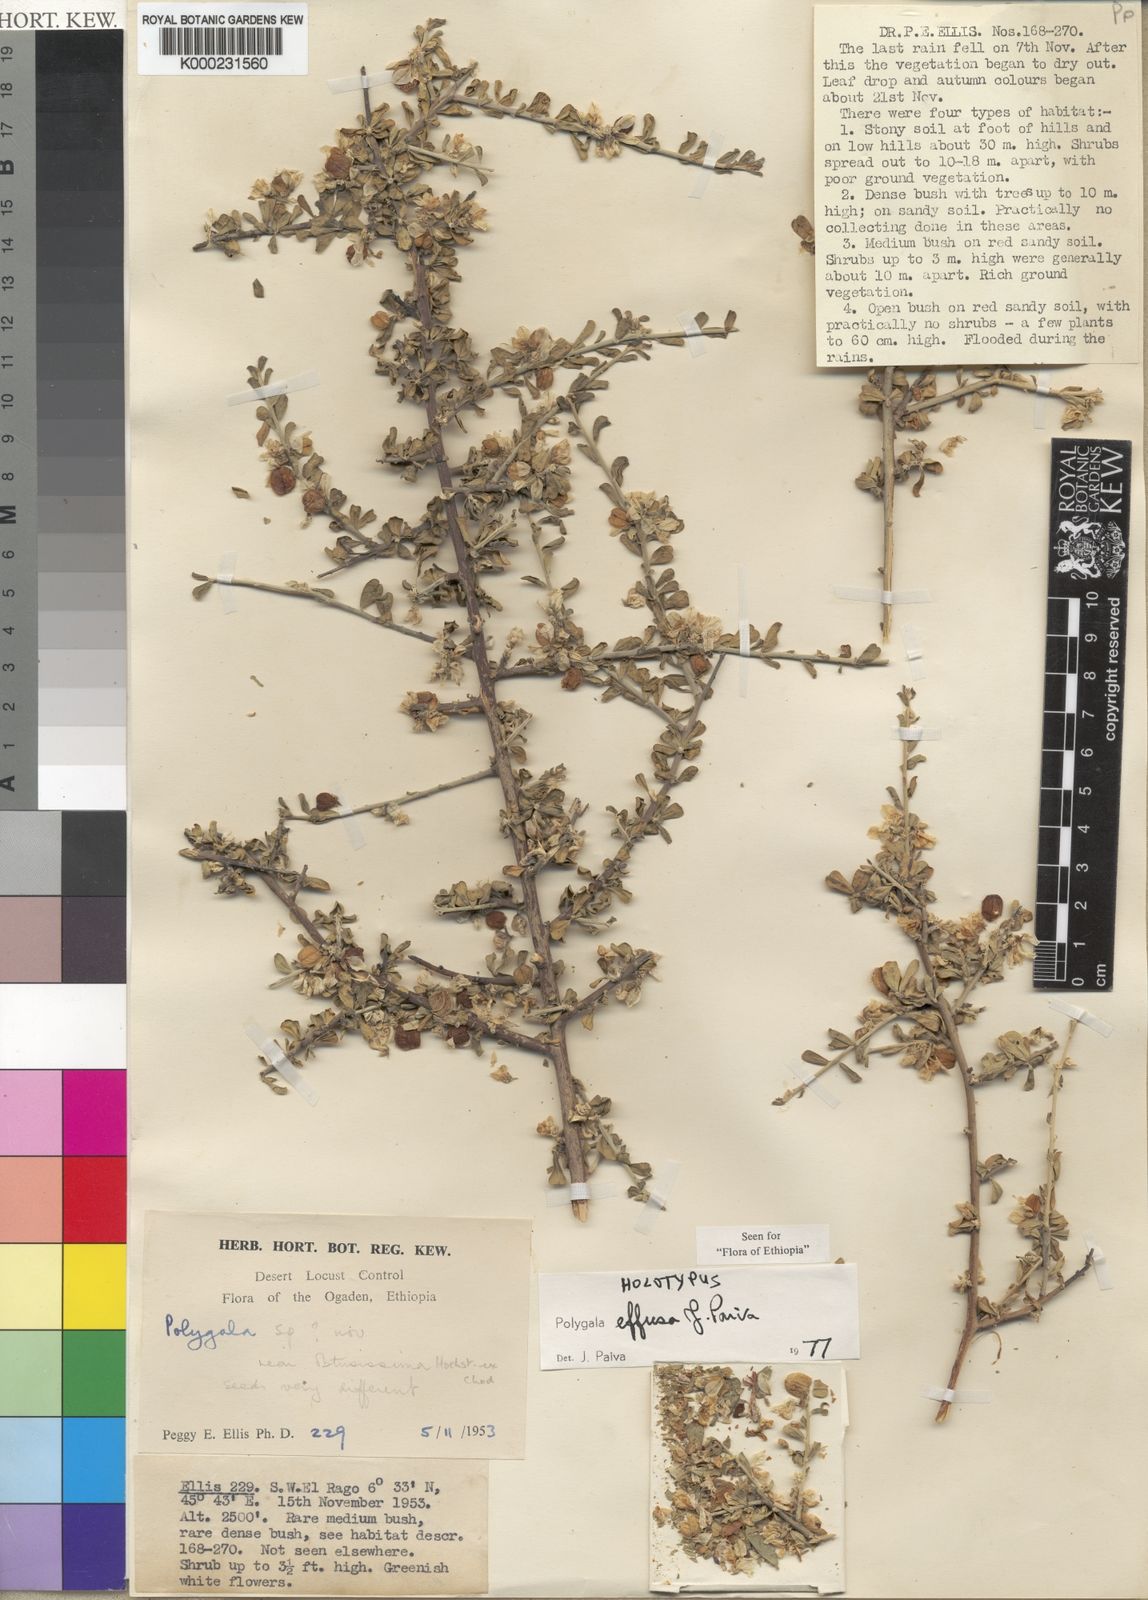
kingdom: Plantae
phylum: Tracheophyta
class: Magnoliopsida
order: Fabales
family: Polygalaceae
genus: Polygala
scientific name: Polygala effusa
